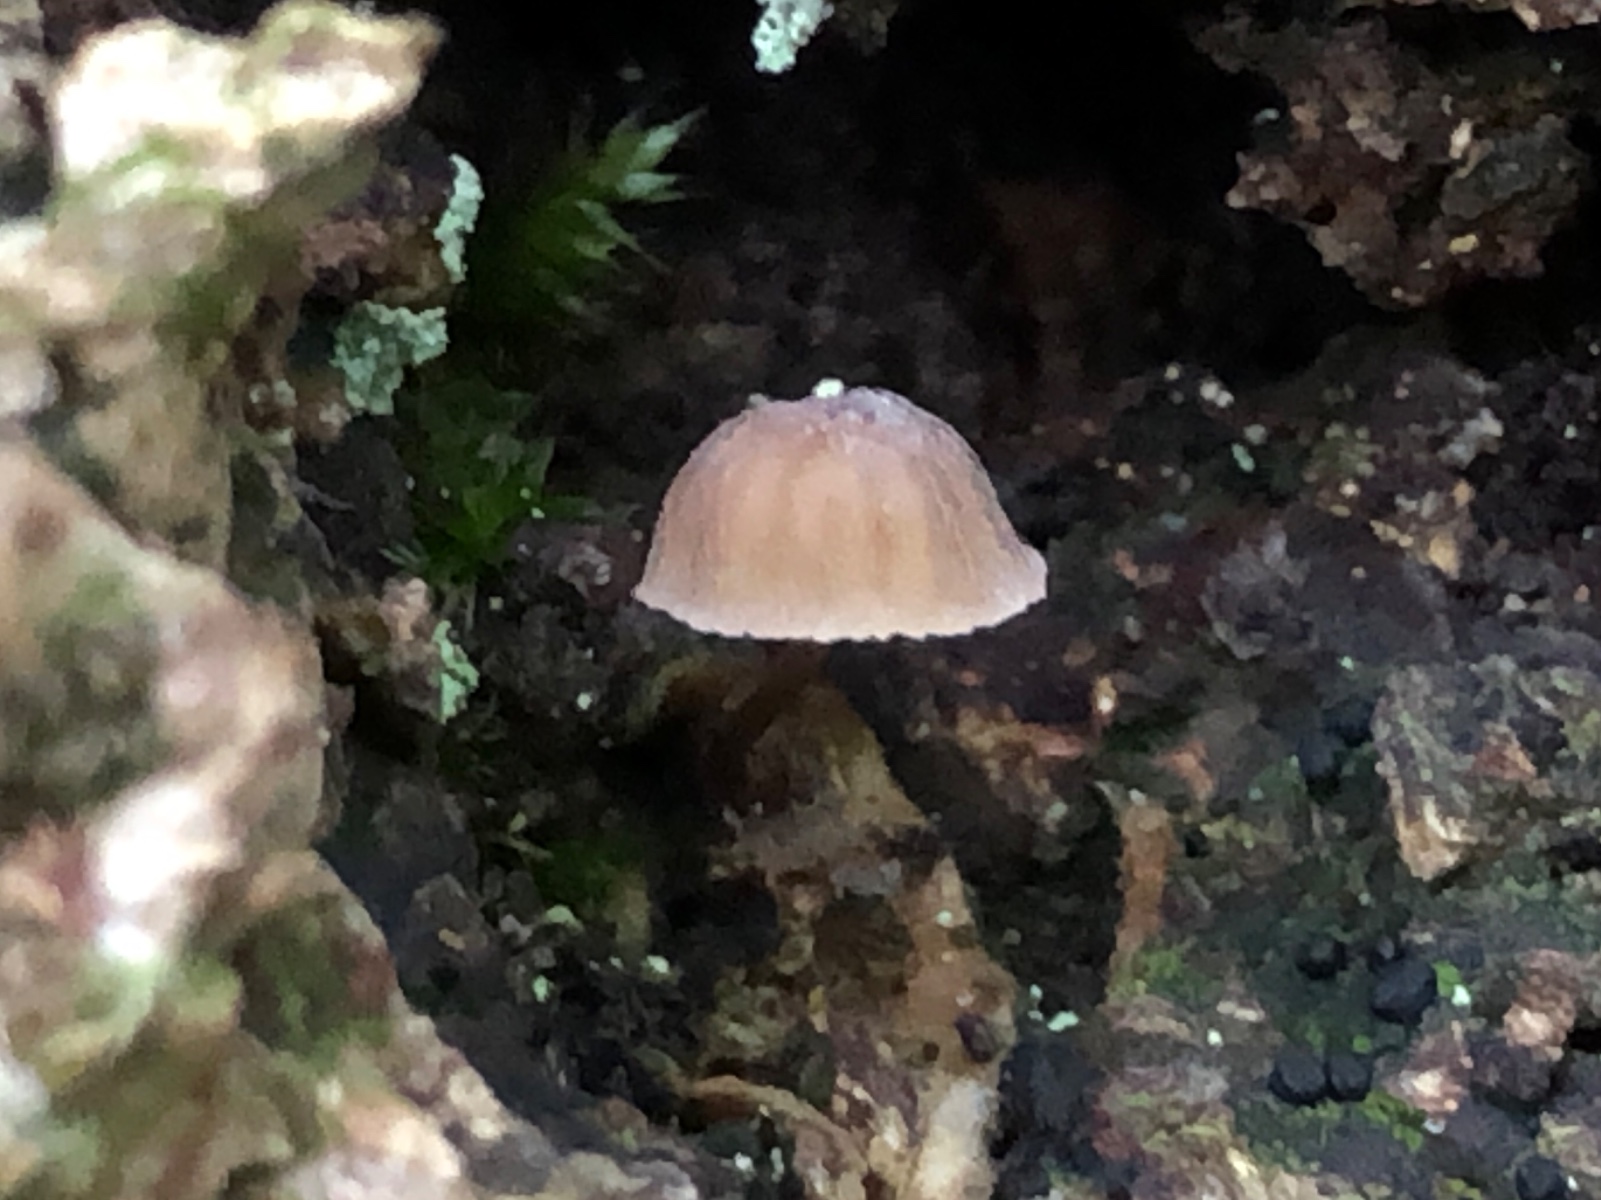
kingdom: Fungi
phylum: Basidiomycota
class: Agaricomycetes
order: Agaricales
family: Mycenaceae
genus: Mycena
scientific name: Mycena supina
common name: olivenbrun bark-huesvamp
